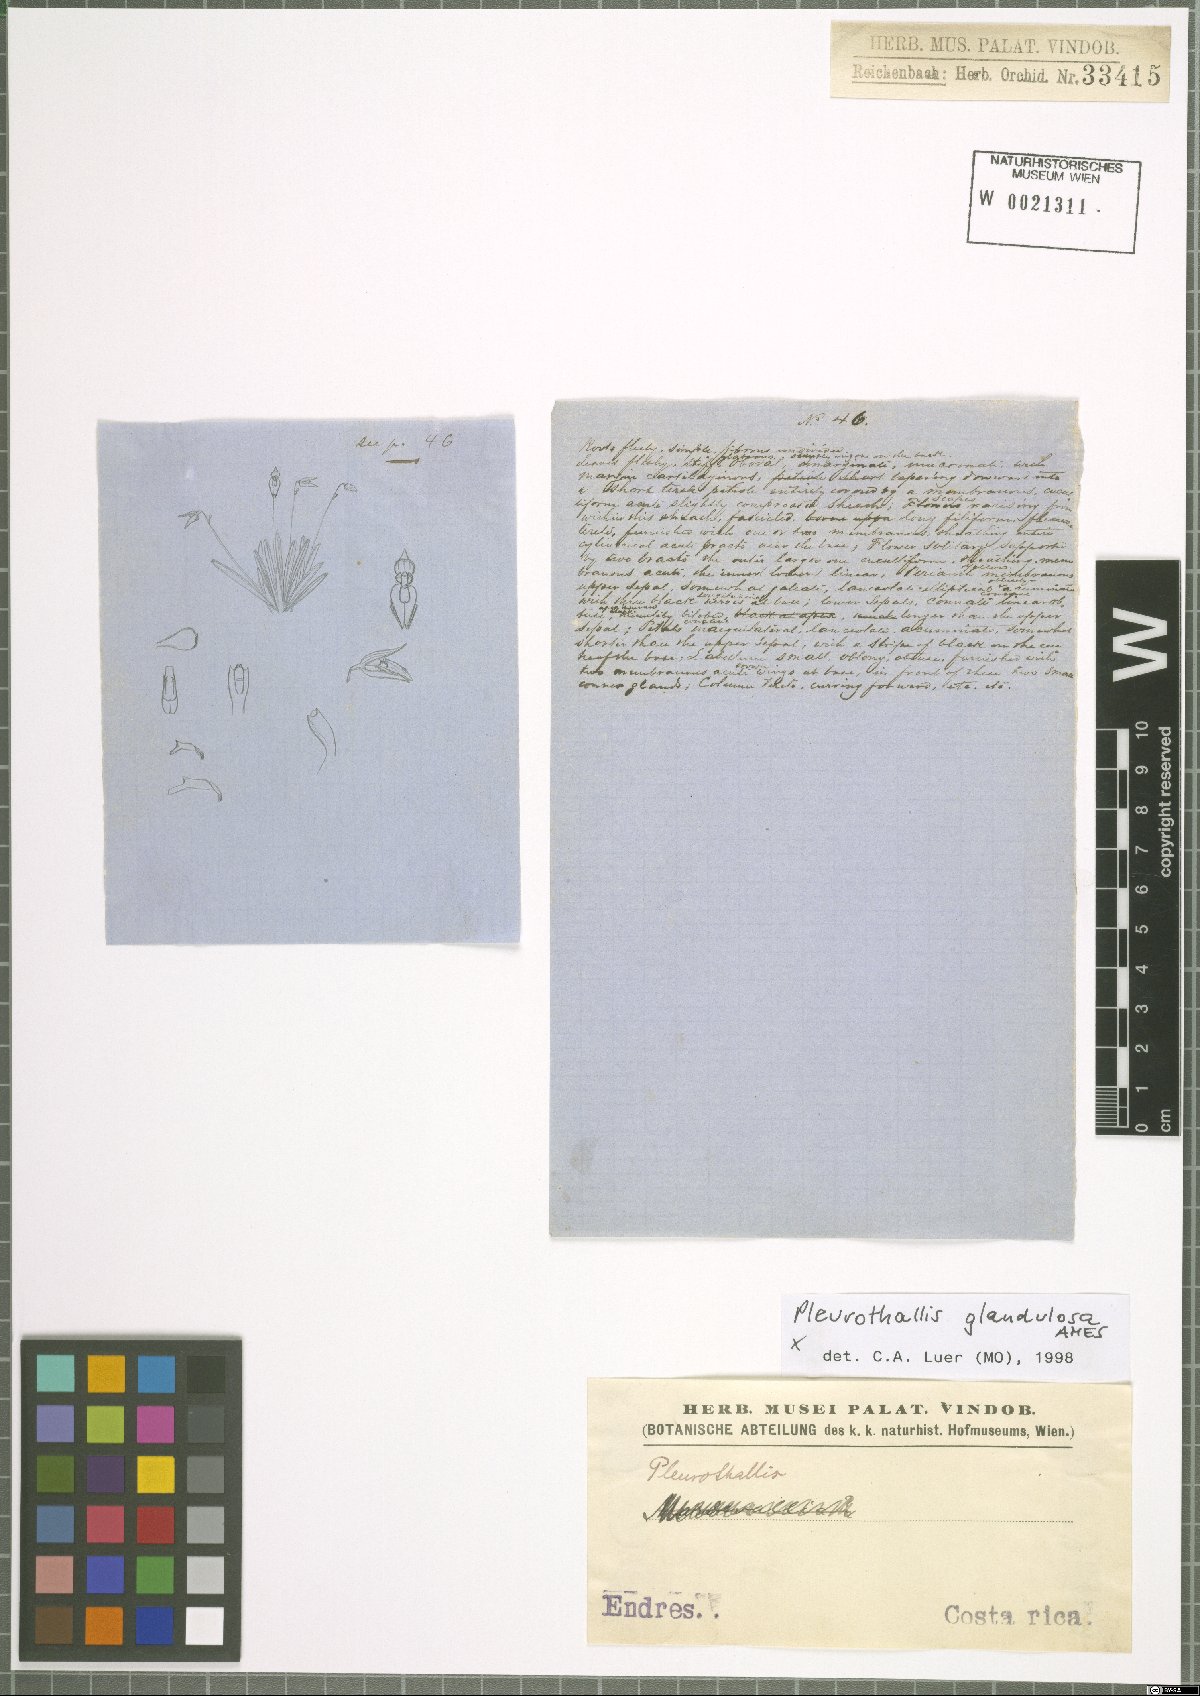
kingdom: Plantae
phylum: Tracheophyta
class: Liliopsida
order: Asparagales
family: Orchidaceae
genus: Specklinia
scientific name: Specklinia glandulosa
